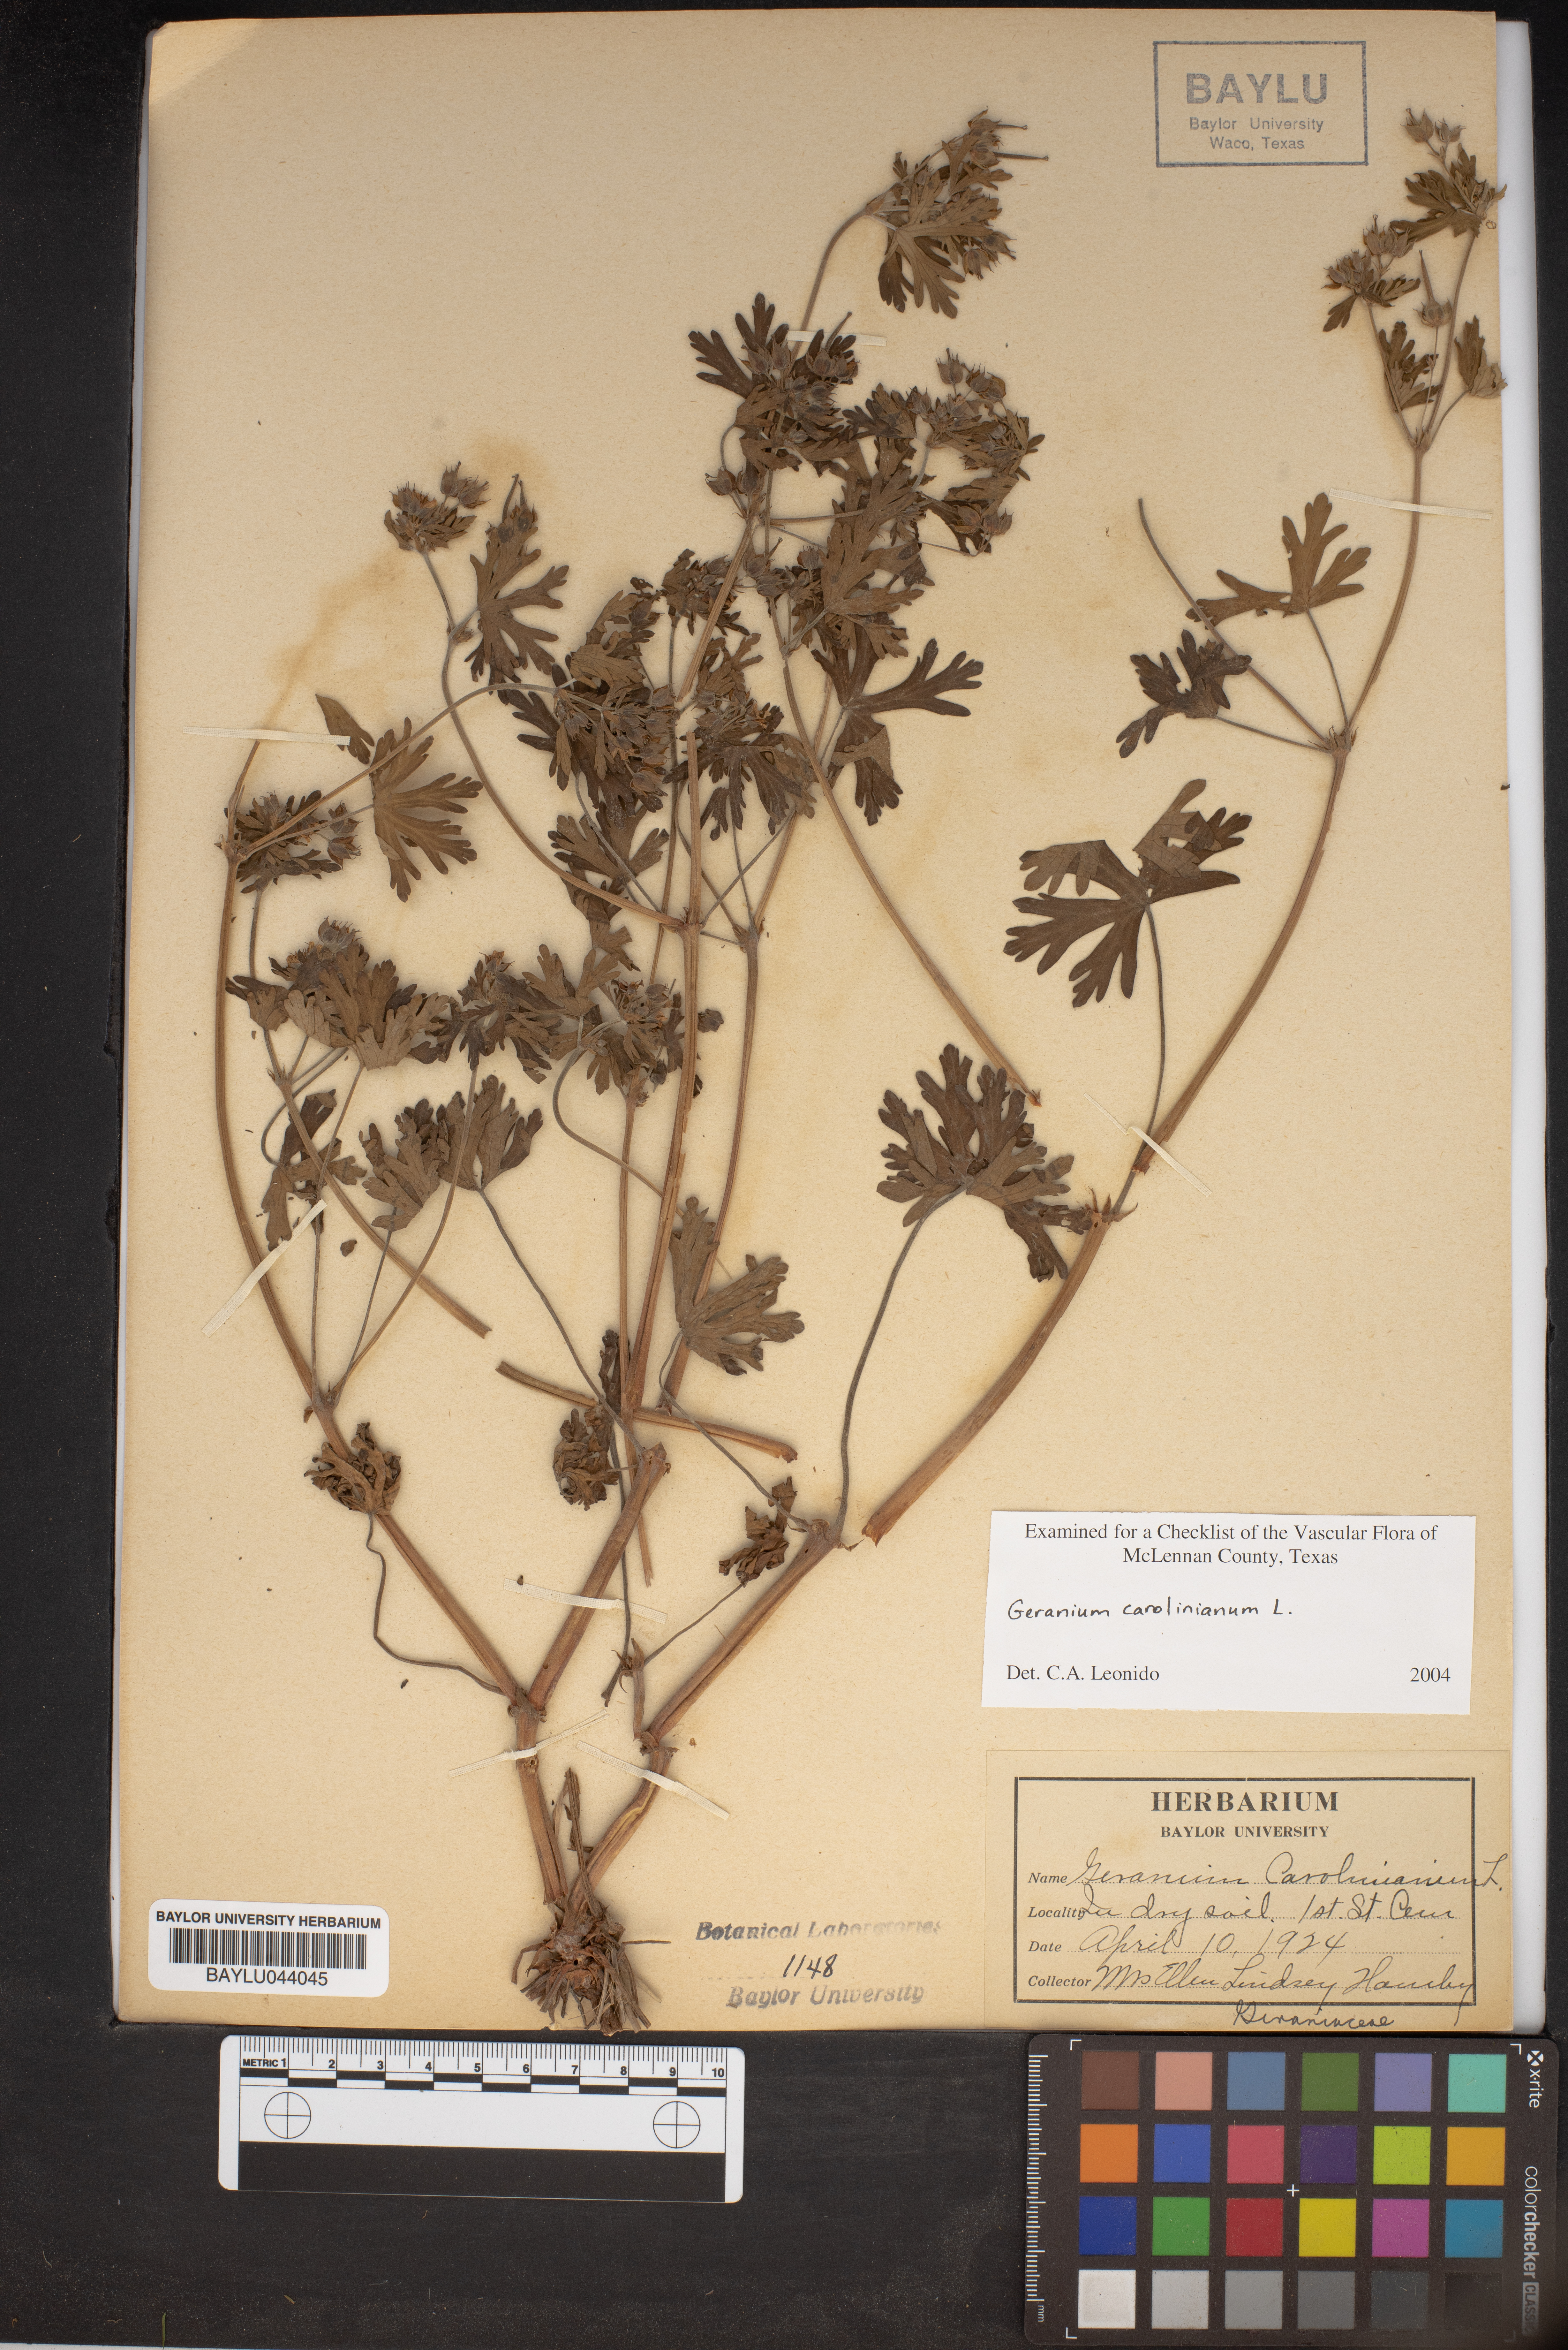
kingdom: Plantae
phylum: Tracheophyta
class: Magnoliopsida
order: Geraniales
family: Geraniaceae
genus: Geranium
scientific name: Geranium carolinianum
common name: Carolina crane's-bill
